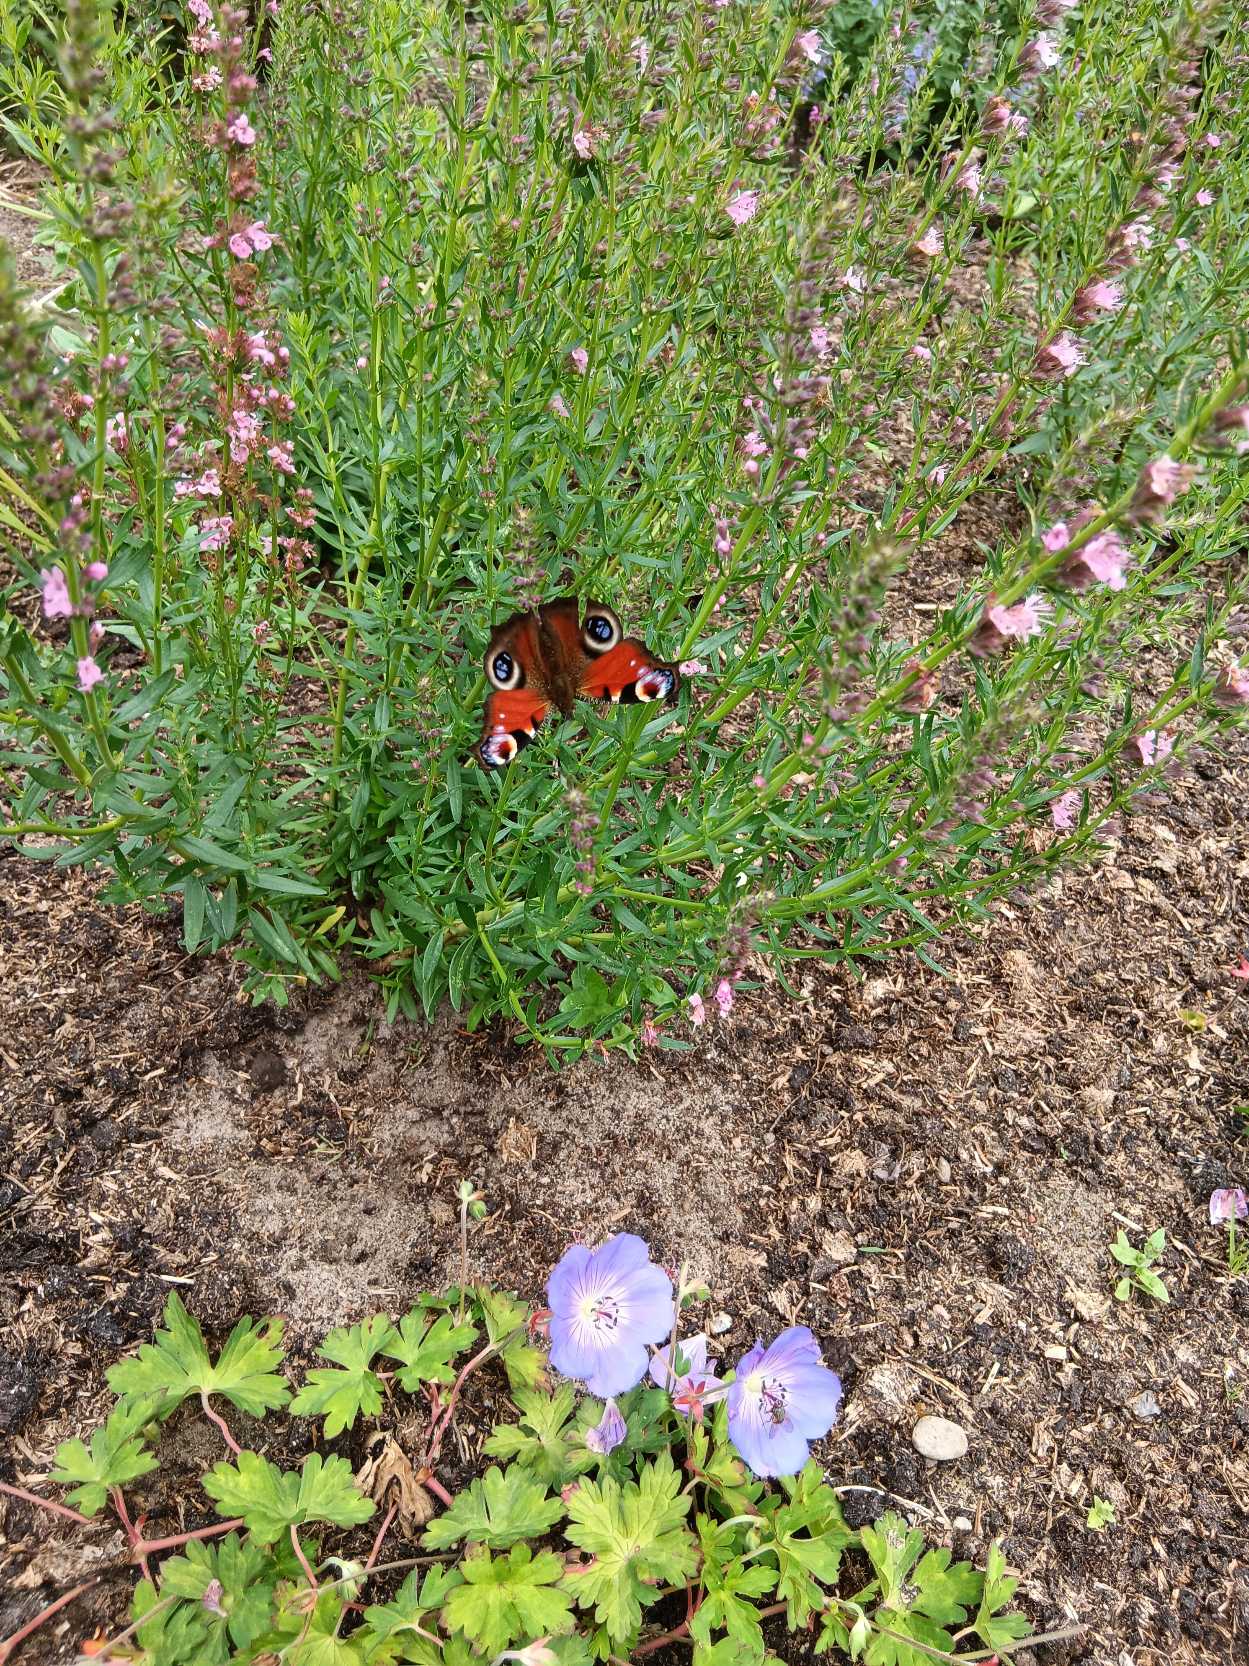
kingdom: Animalia
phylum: Arthropoda
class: Insecta
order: Lepidoptera
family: Nymphalidae
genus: Aglais
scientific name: Aglais io
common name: Dagpåfugleøje
